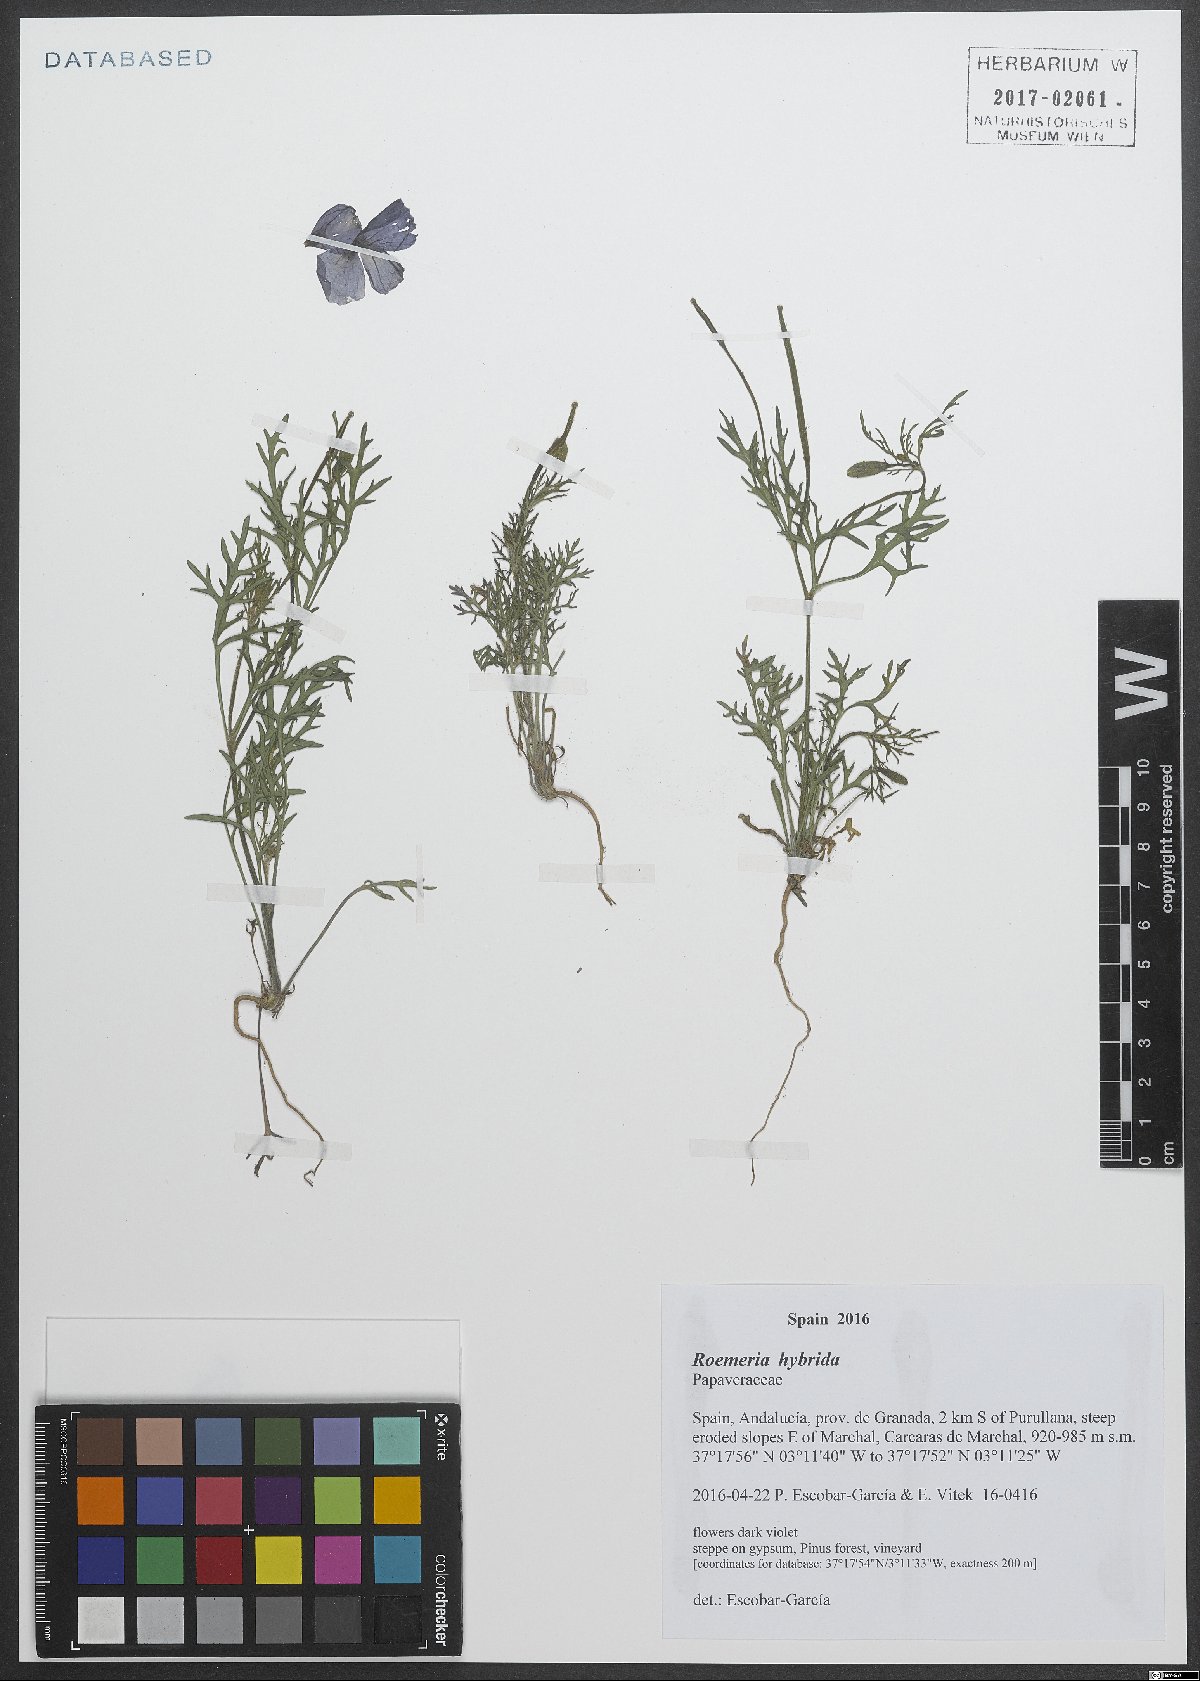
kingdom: Plantae
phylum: Tracheophyta
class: Magnoliopsida
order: Ranunculales
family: Papaveraceae
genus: Roemeria
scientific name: Roemeria hybrida
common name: Violet horned-poppy
